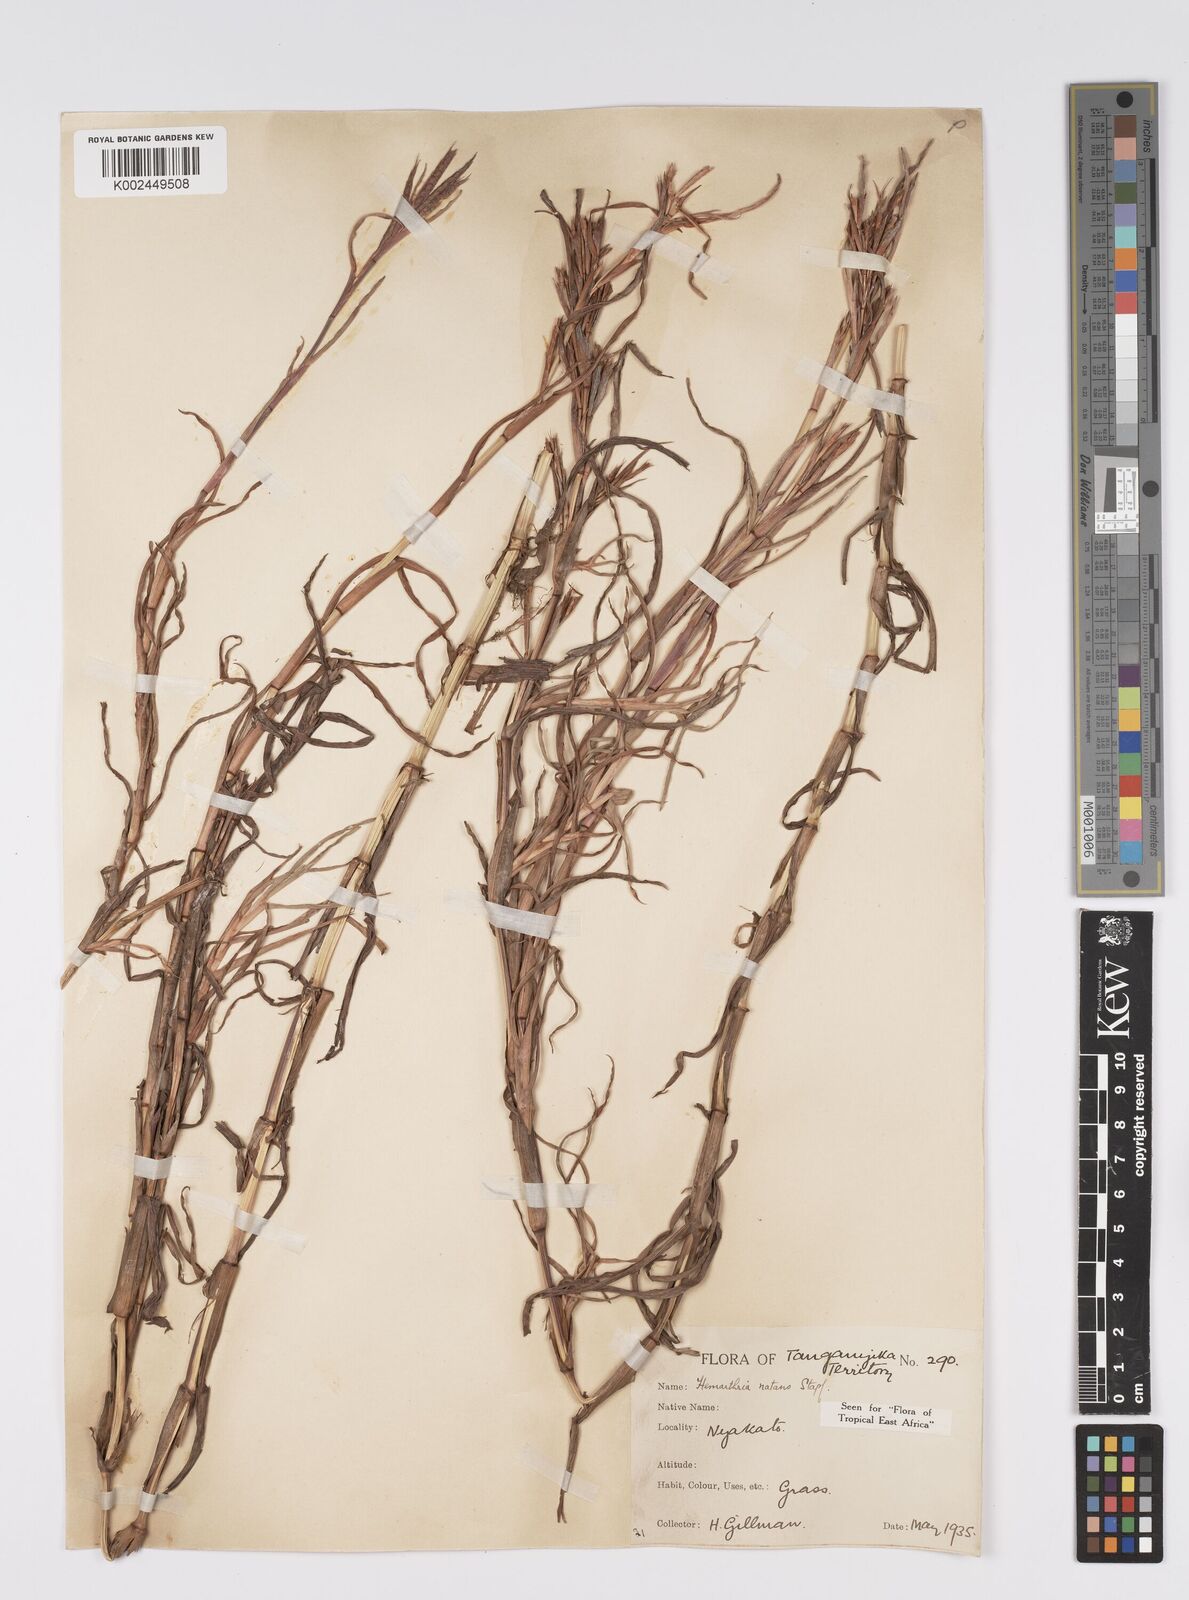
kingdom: Plantae
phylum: Tracheophyta
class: Liliopsida
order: Poales
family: Poaceae
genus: Hemarthria
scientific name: Hemarthria natans
